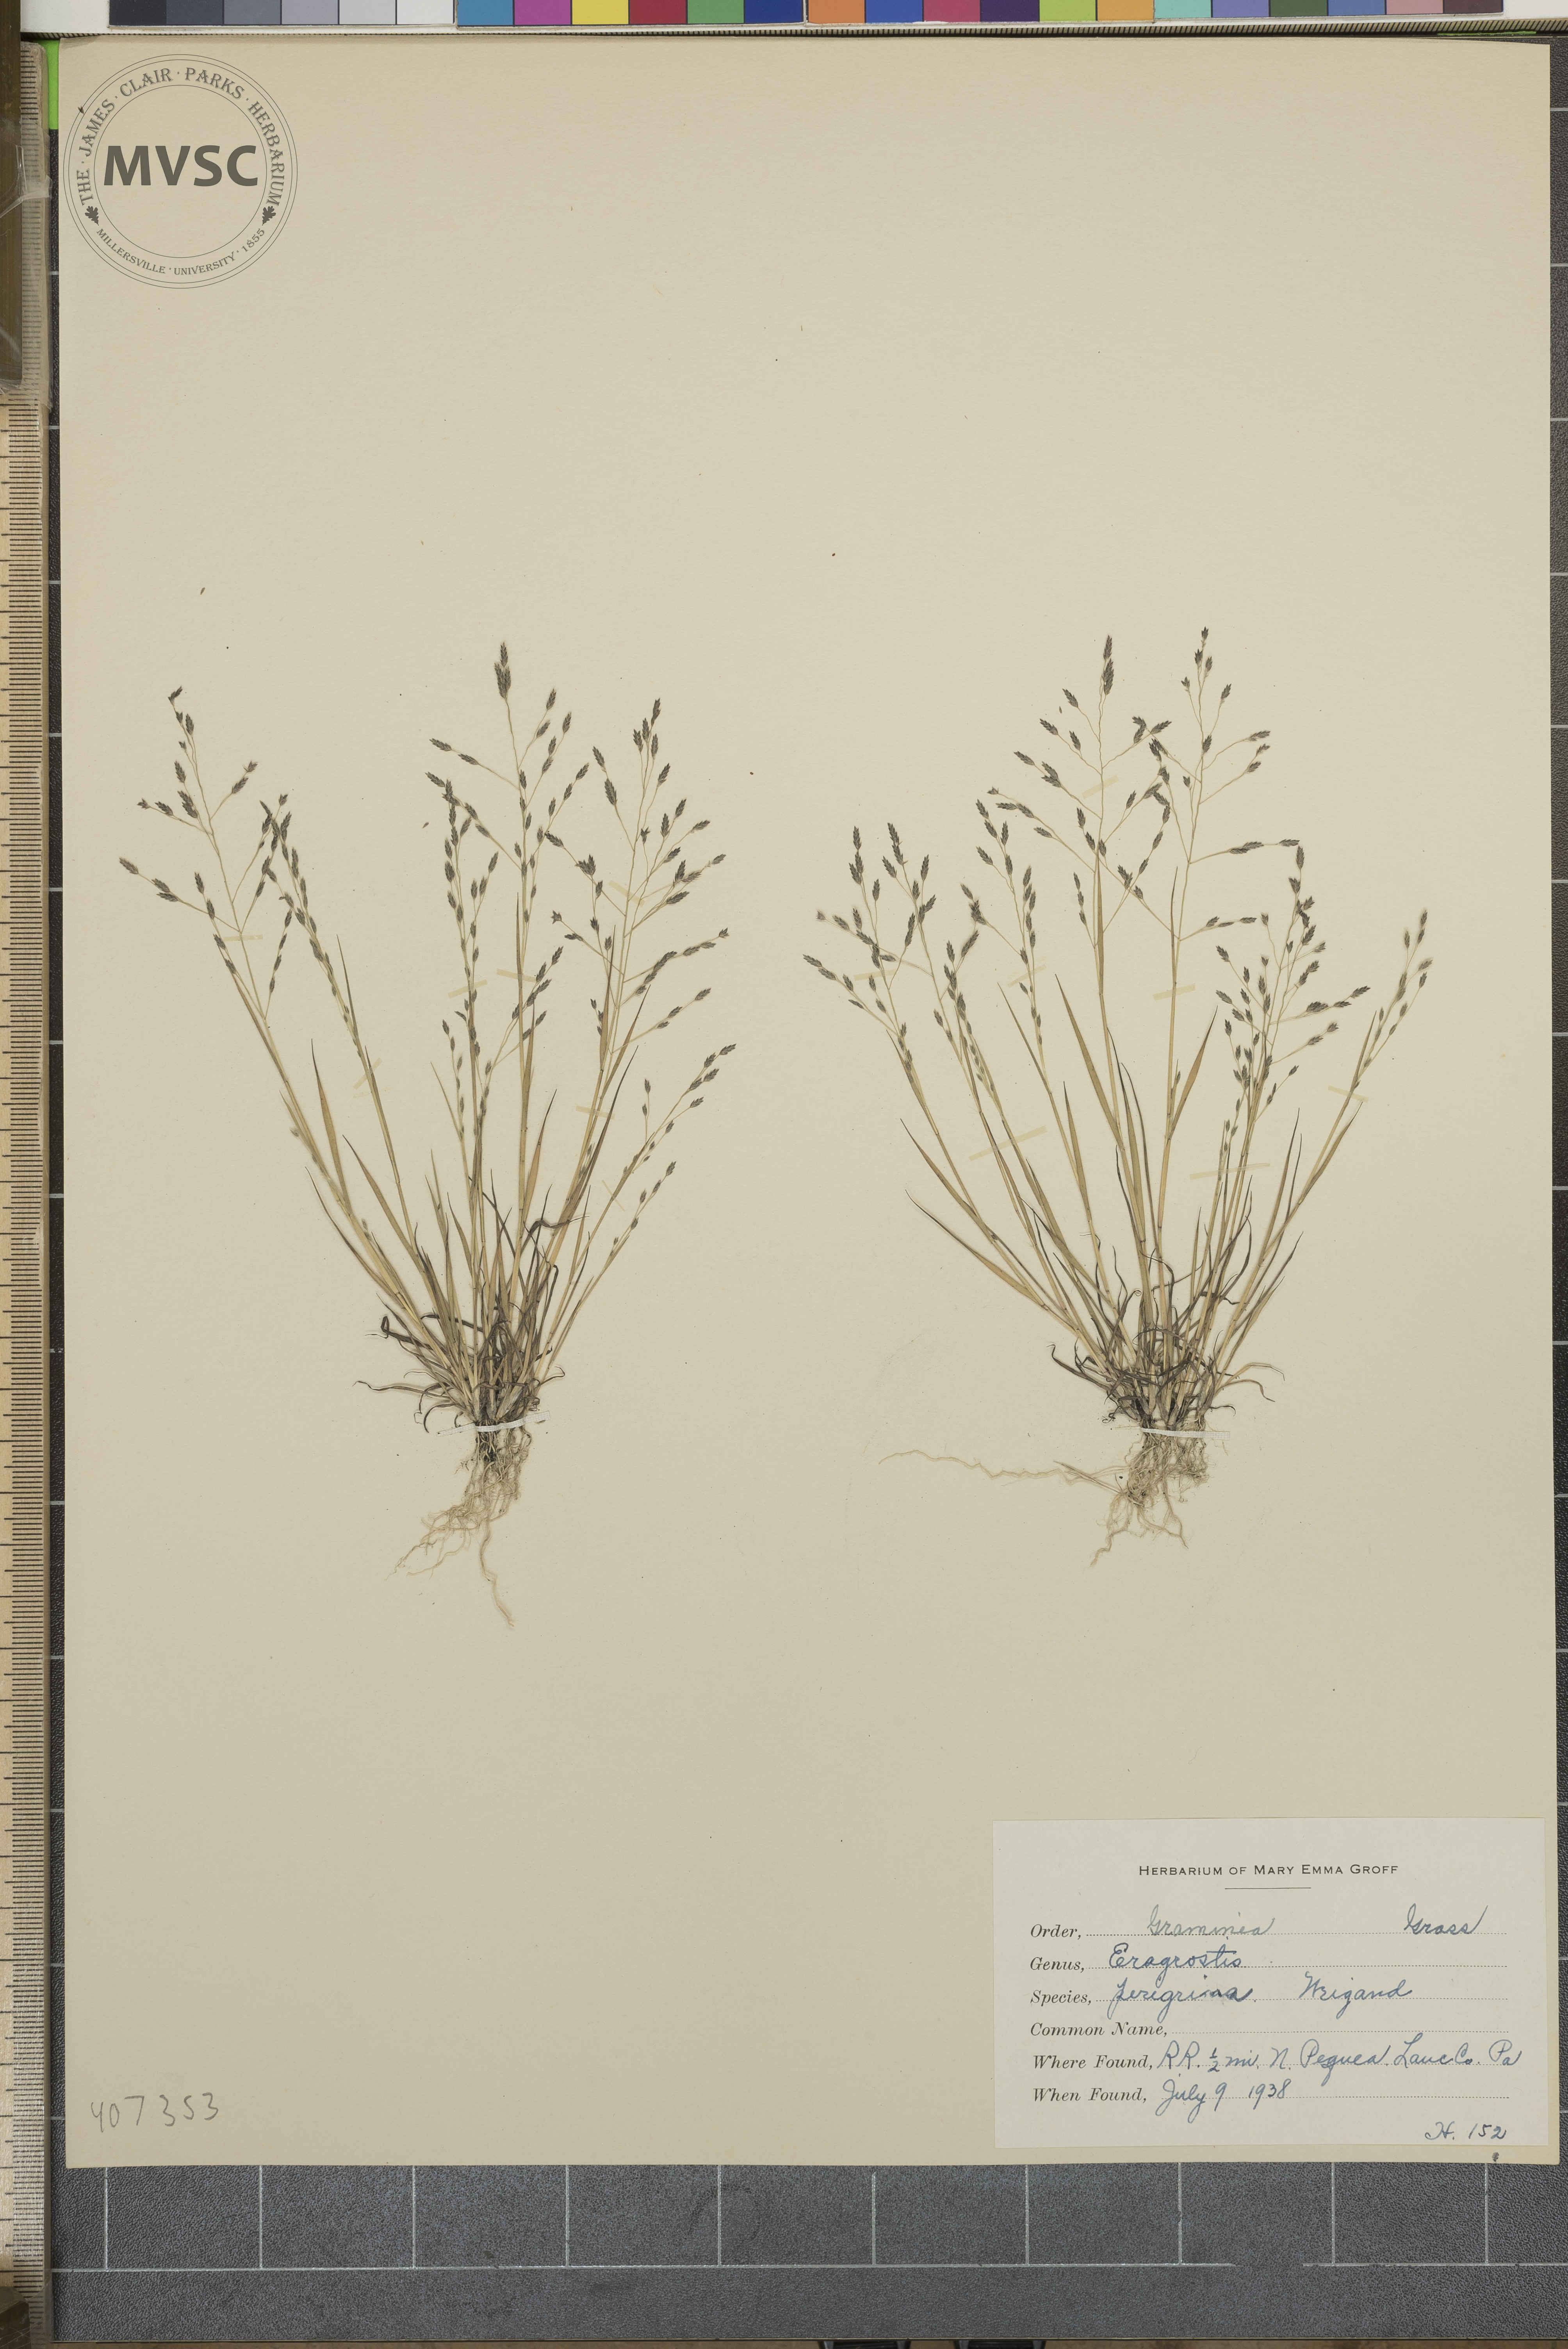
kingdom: Plantae
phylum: Tracheophyta
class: Liliopsida
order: Poales
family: Poaceae
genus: Eragrostis
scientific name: Eragrostis pectinacea
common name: Tufted lovegrass
